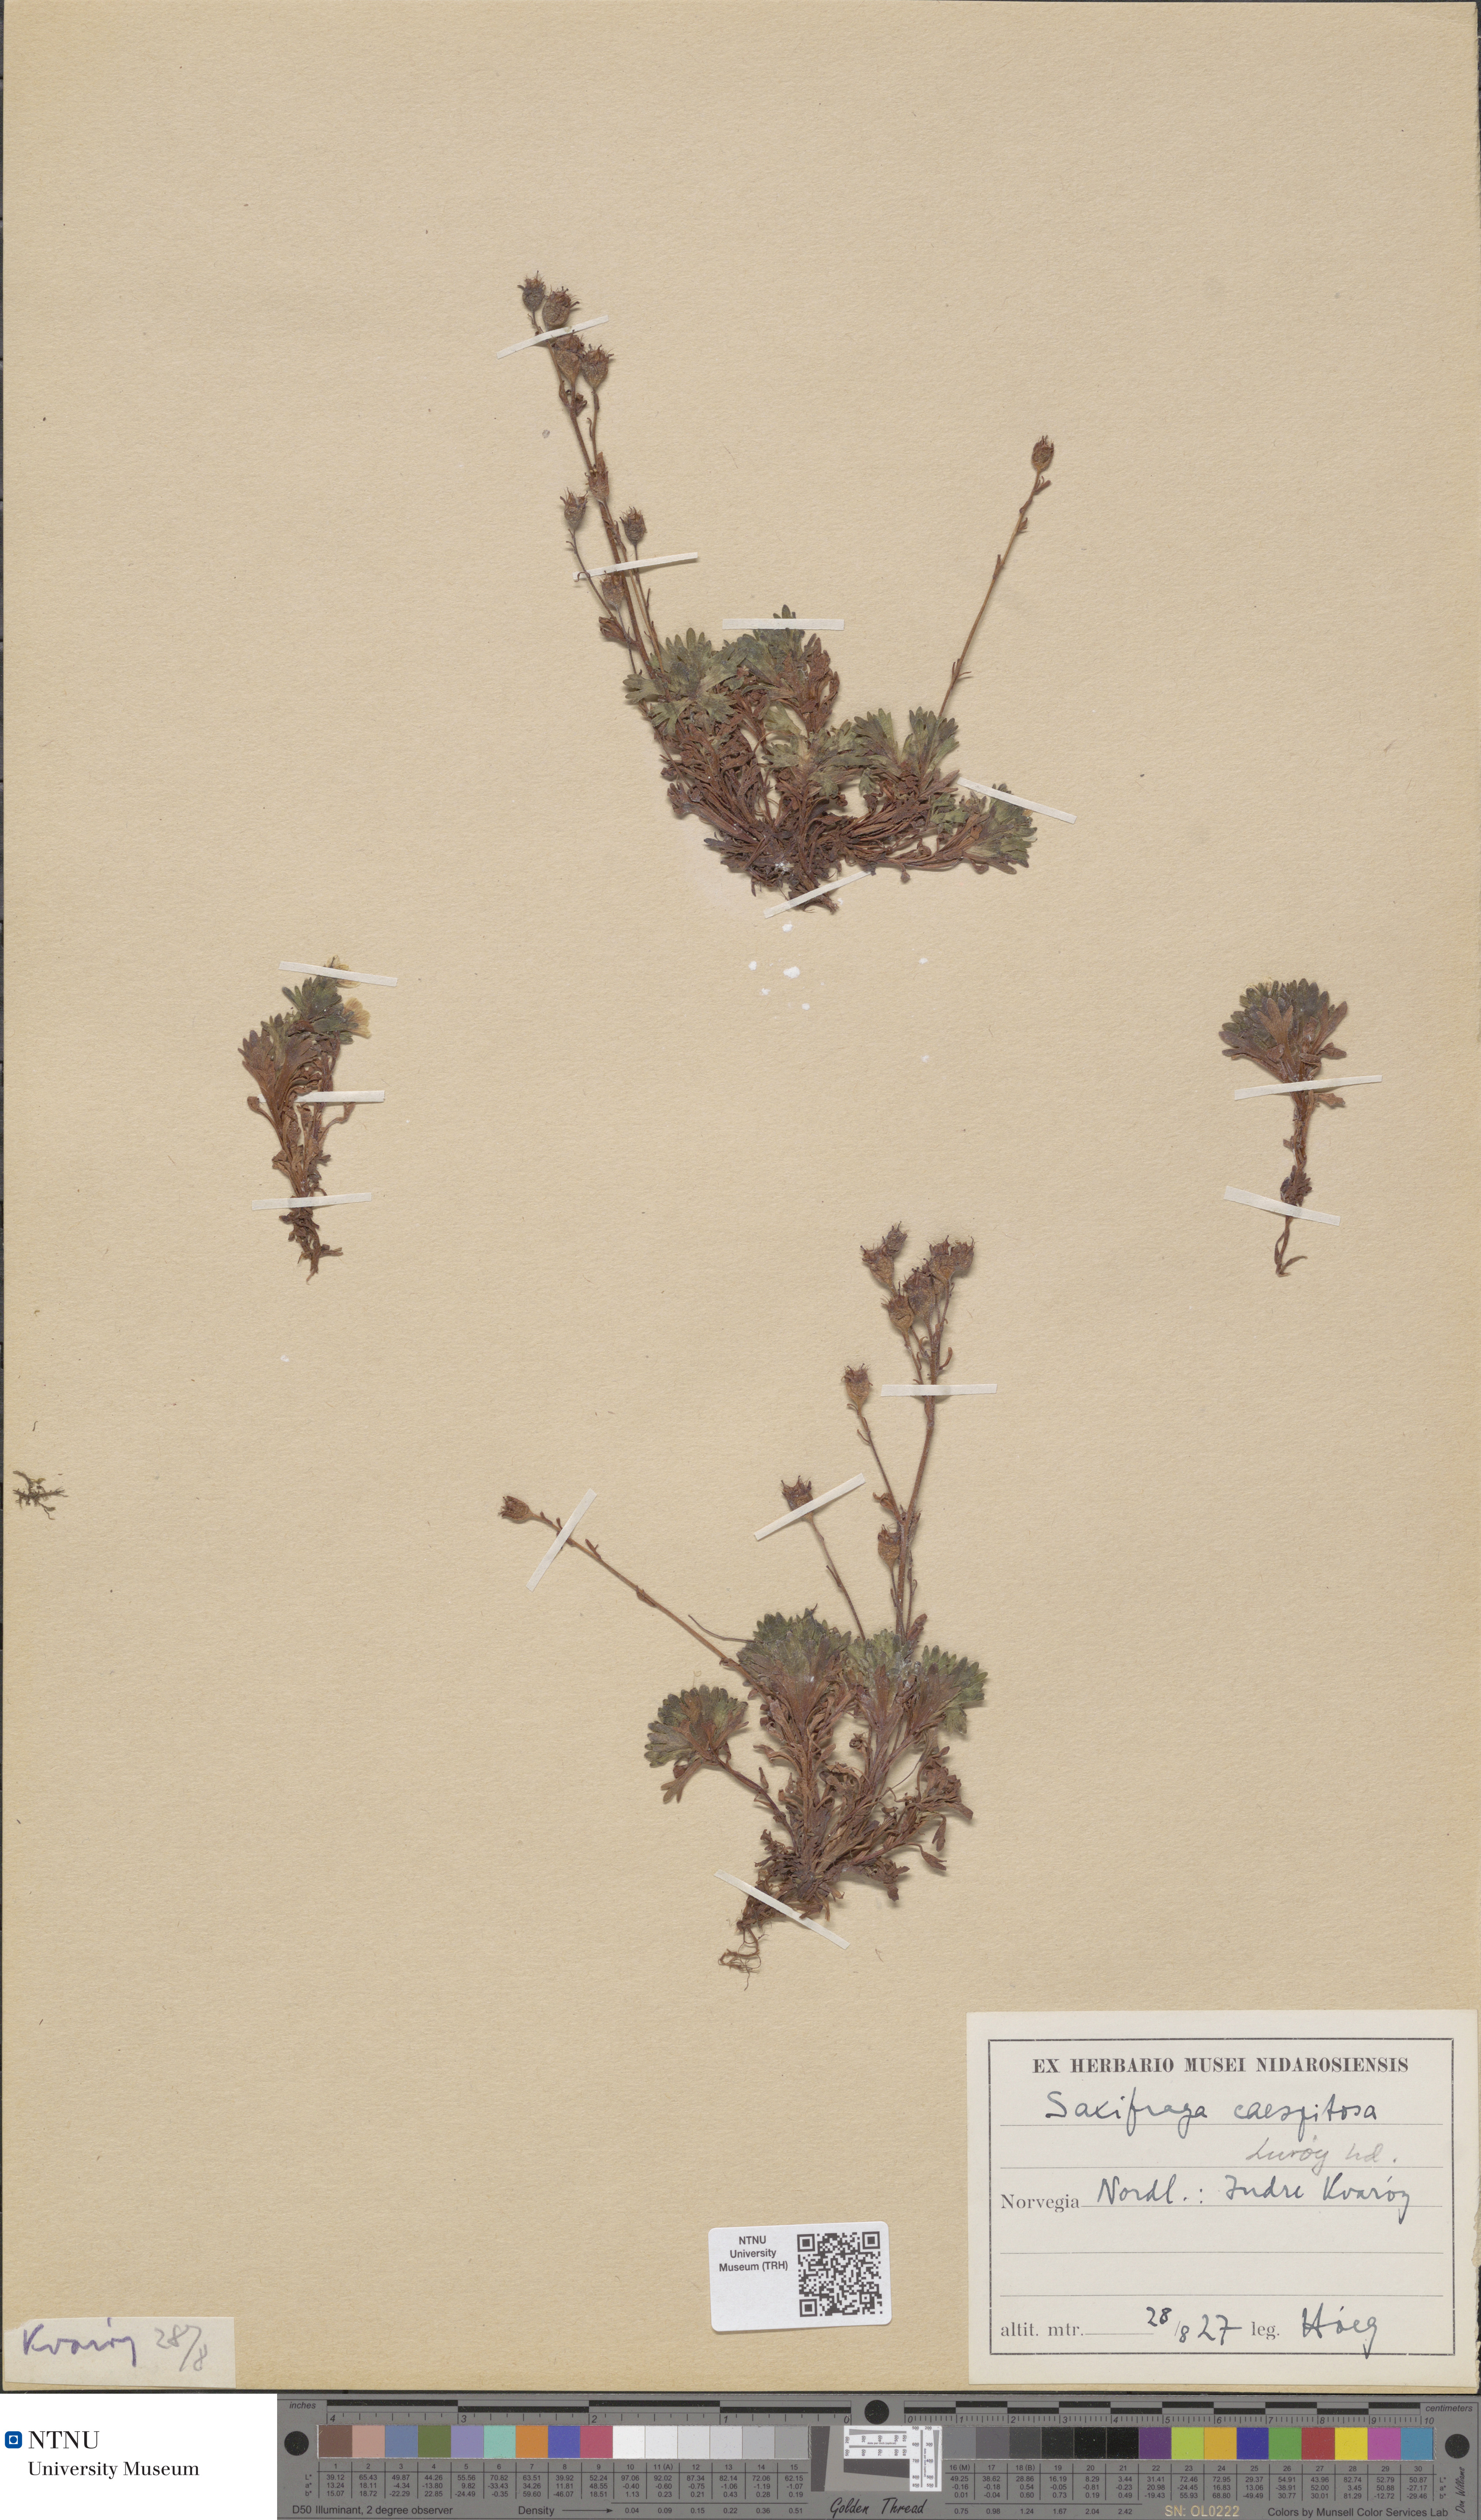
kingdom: Plantae
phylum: Tracheophyta
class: Magnoliopsida
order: Saxifragales
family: Saxifragaceae
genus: Saxifraga
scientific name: Saxifraga cespitosa
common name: Tufted saxifrage
